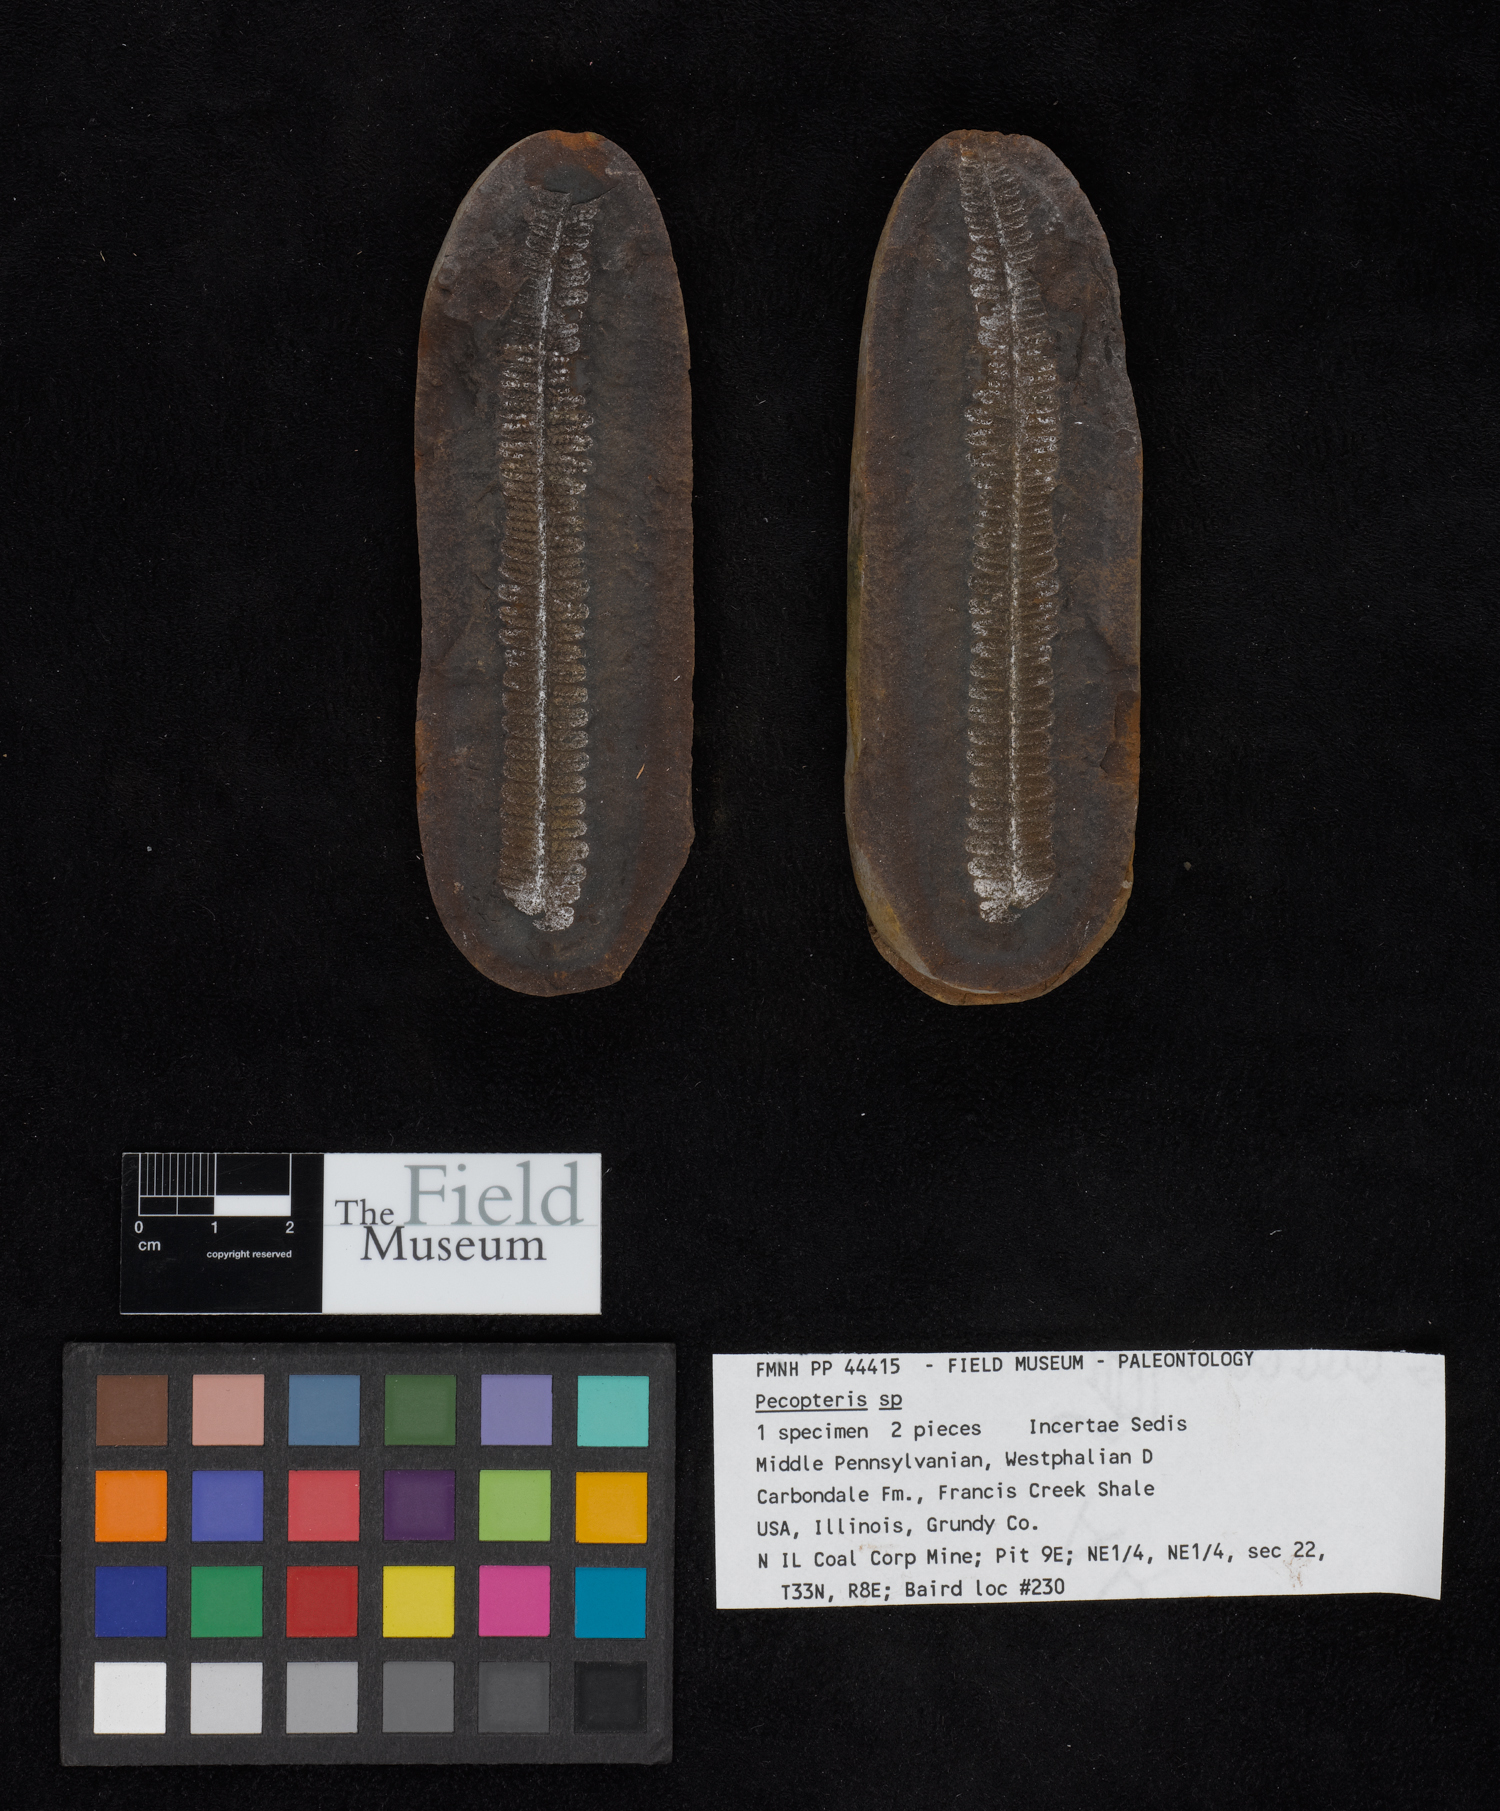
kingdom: Plantae
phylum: Tracheophyta
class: Polypodiopsida
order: Marattiales
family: Asterothecaceae
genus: Pecopteris
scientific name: Pecopteris
